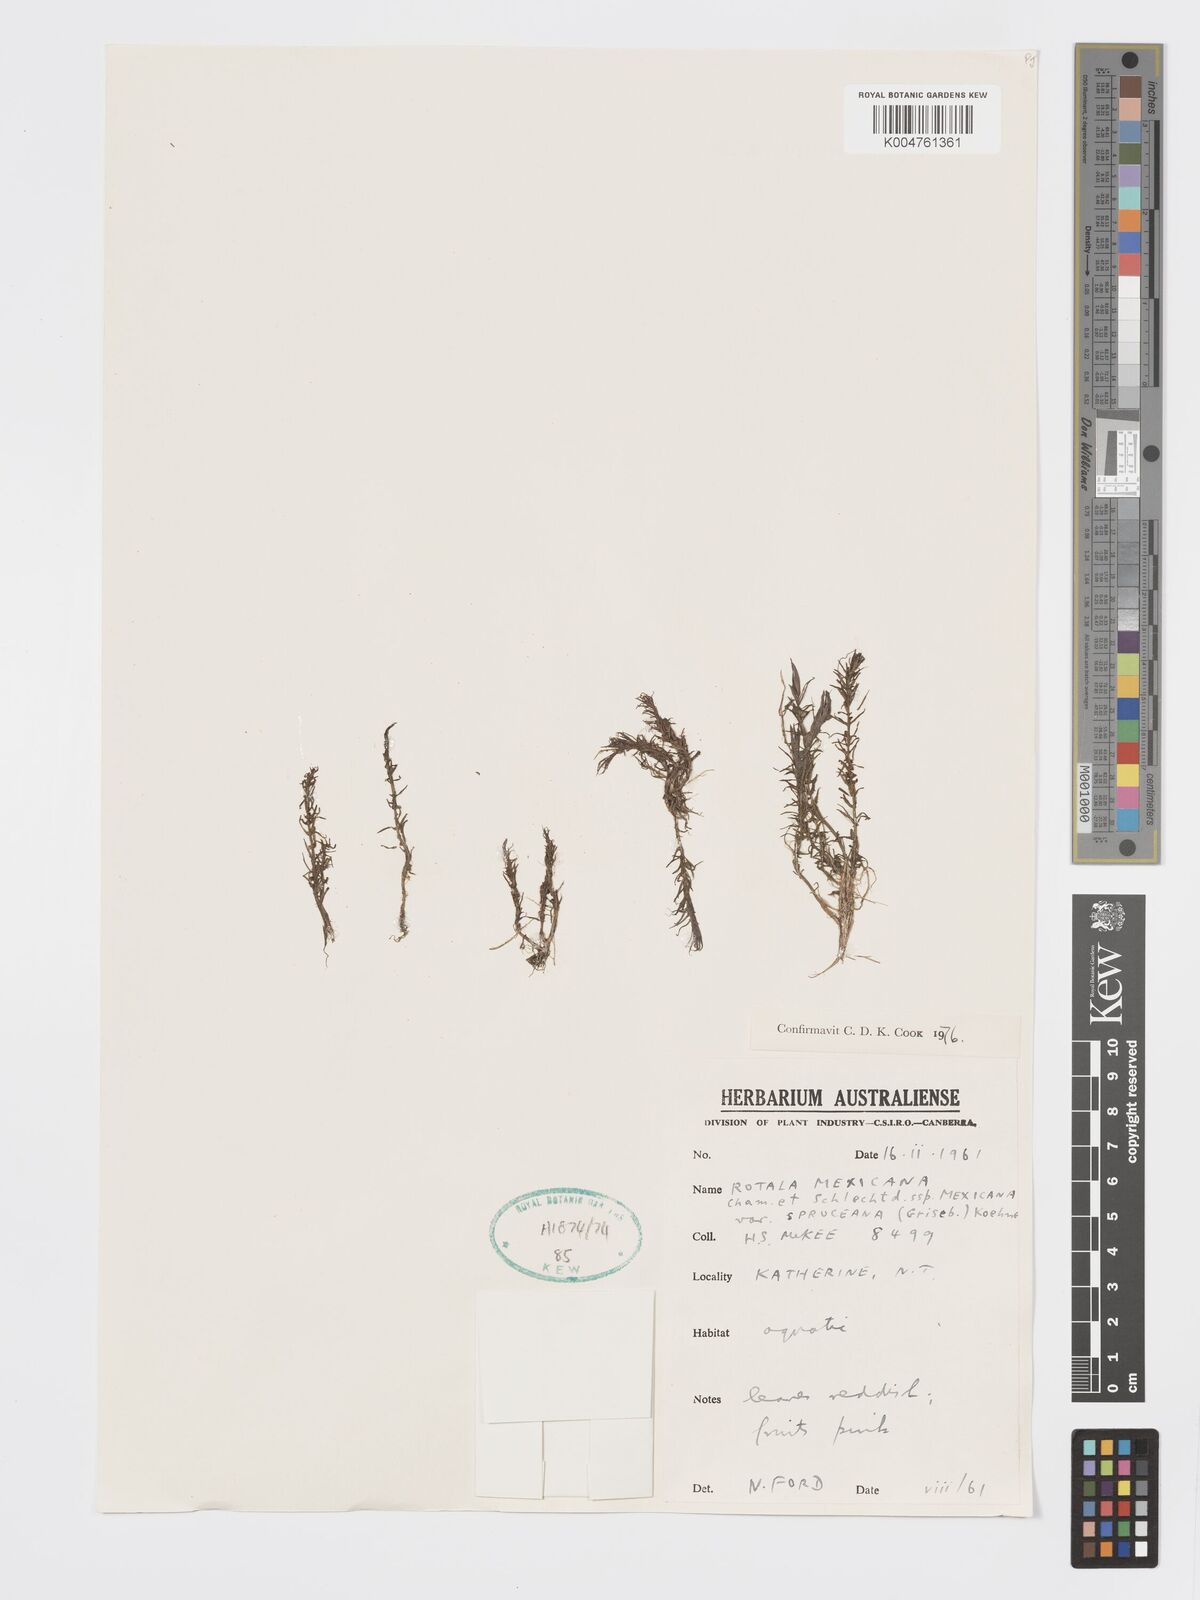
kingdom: Plantae
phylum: Tracheophyta
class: Magnoliopsida
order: Myrtales
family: Lythraceae
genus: Rotala
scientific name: Rotala mexicana
